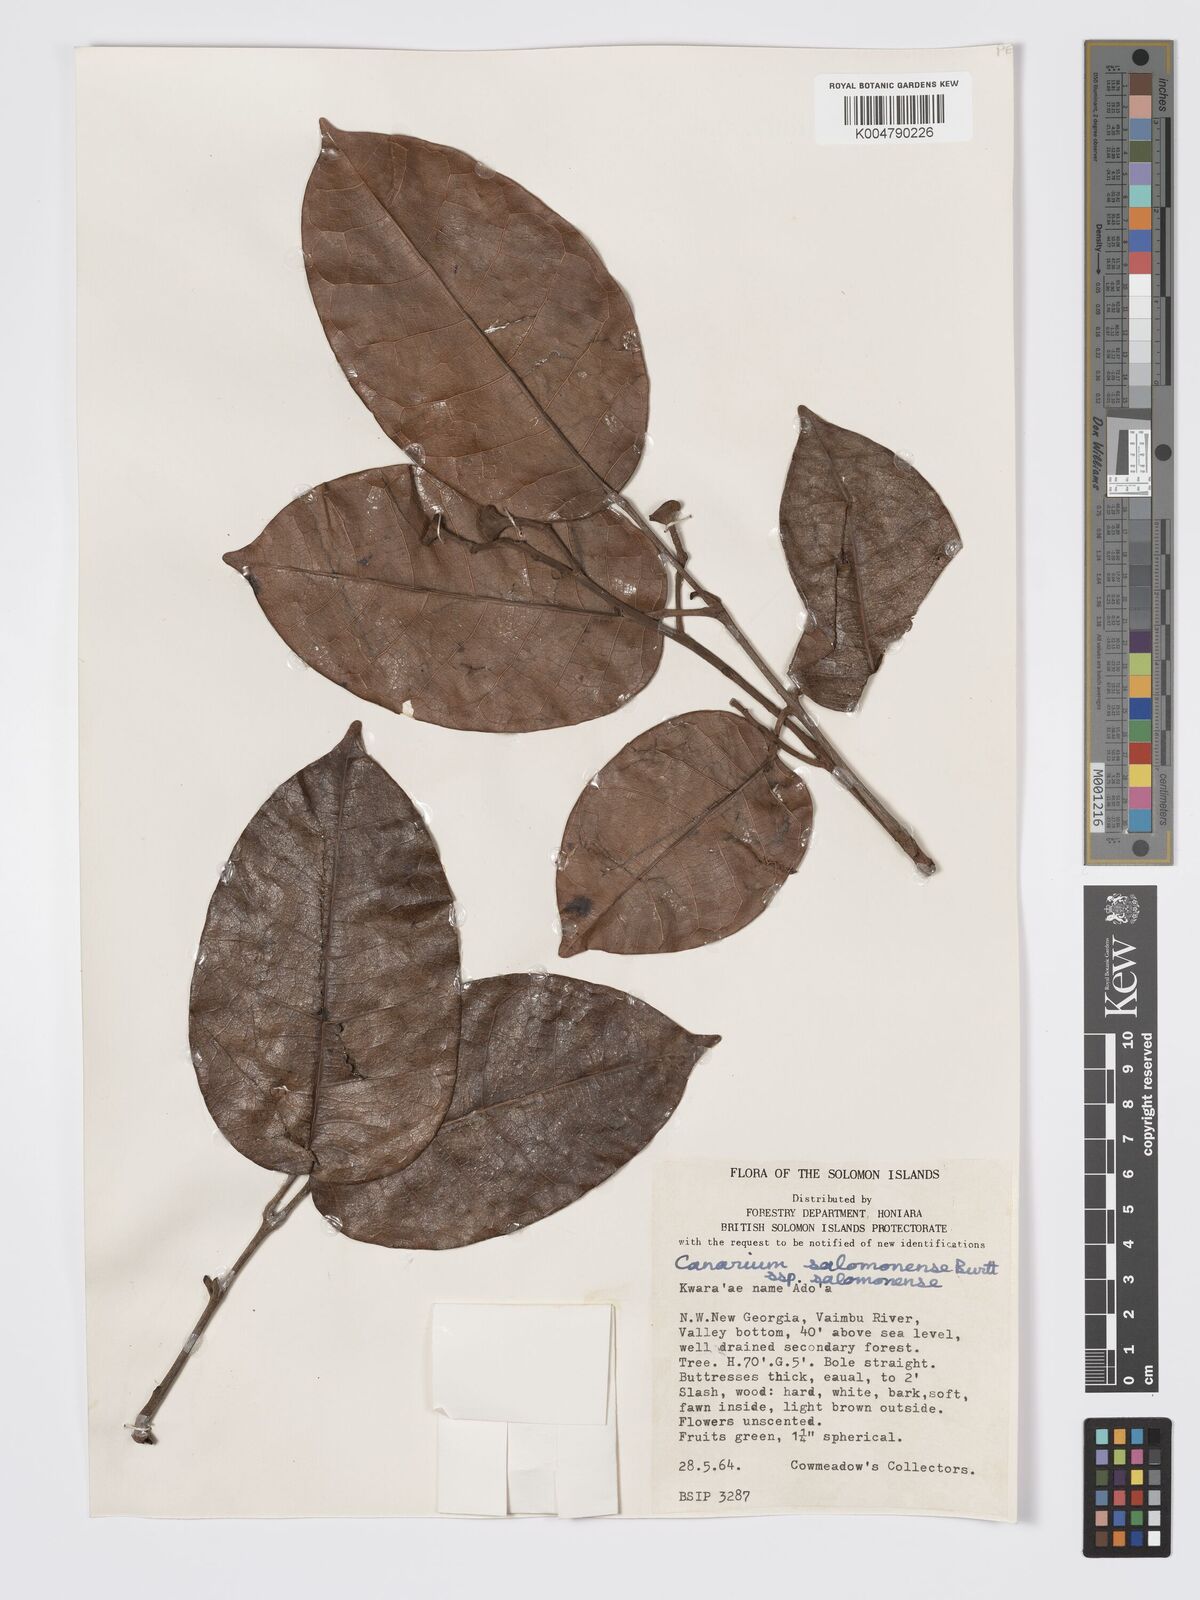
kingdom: Plantae
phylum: Tracheophyta
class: Magnoliopsida
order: Sapindales
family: Burseraceae
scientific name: Burseraceae
